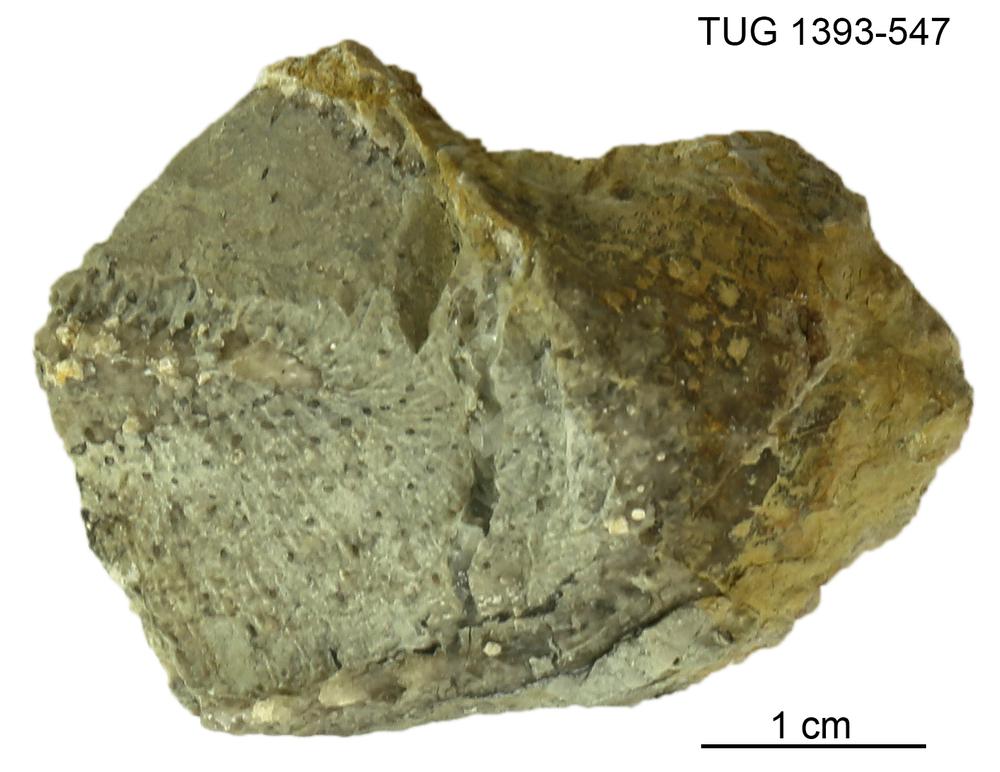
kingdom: Plantae
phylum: Chlorophyta
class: Chlorophyceae
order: Receptaculitales
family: Receptaculitaceae
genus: Receptaculites
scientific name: Receptaculites
